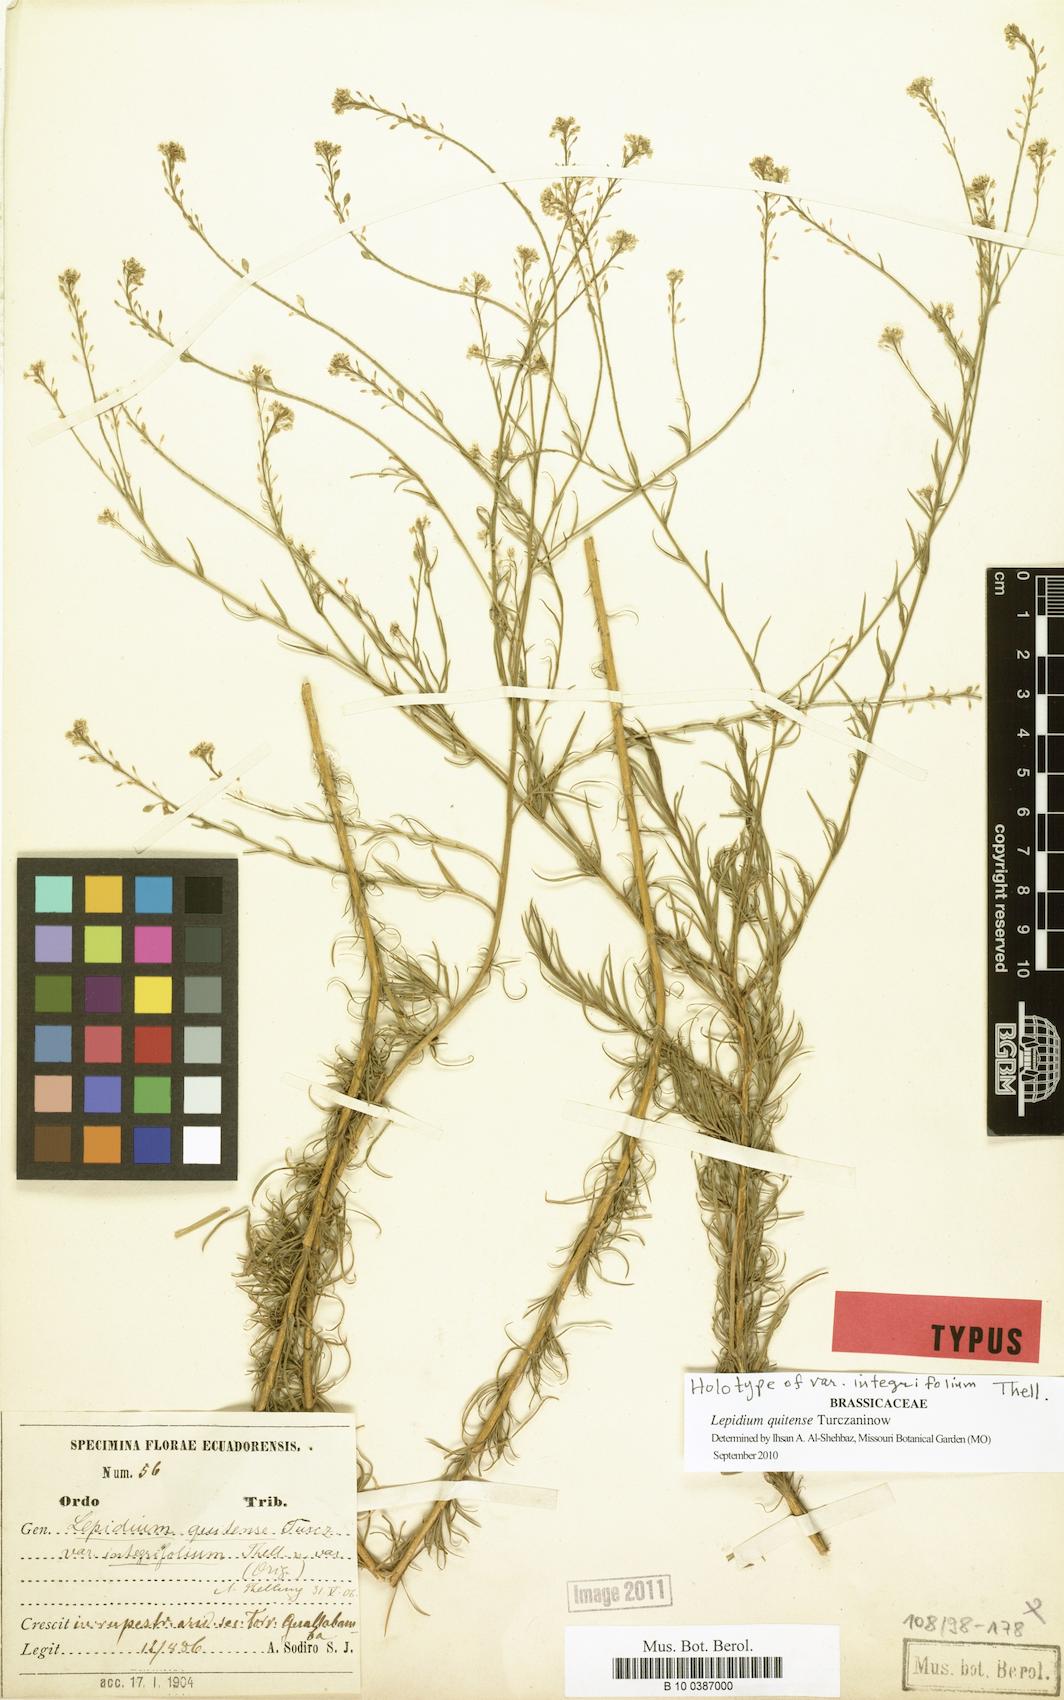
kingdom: Plantae
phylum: Tracheophyta
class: Magnoliopsida
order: Brassicales
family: Brassicaceae
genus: Lepidium
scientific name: Lepidium quitense
